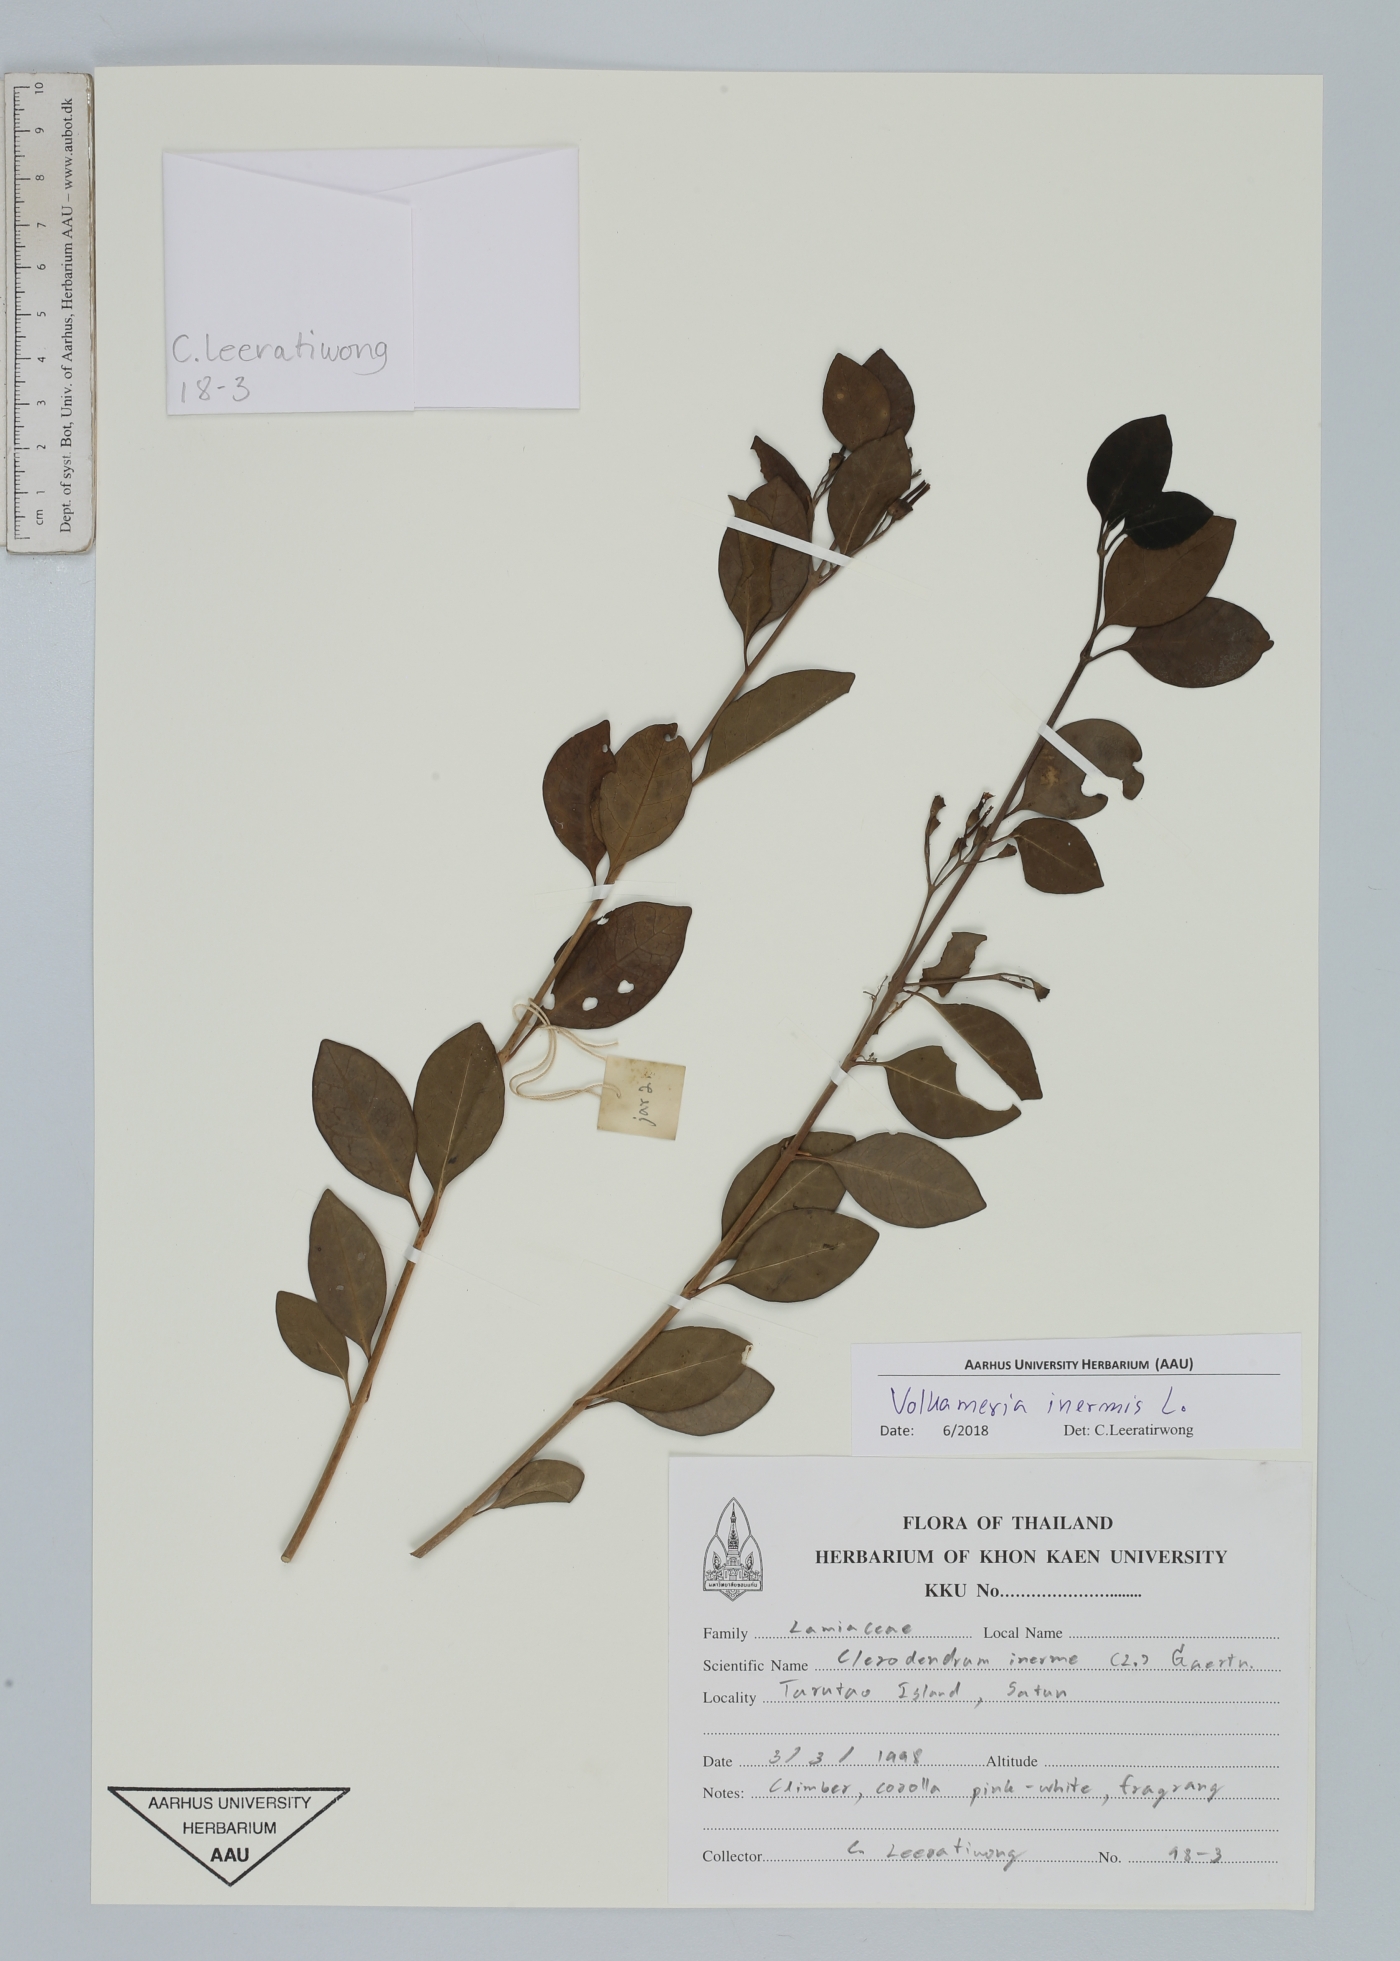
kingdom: Plantae
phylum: Tracheophyta
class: Magnoliopsida
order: Lamiales
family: Lamiaceae
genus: Volkameria
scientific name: Volkameria inermis
